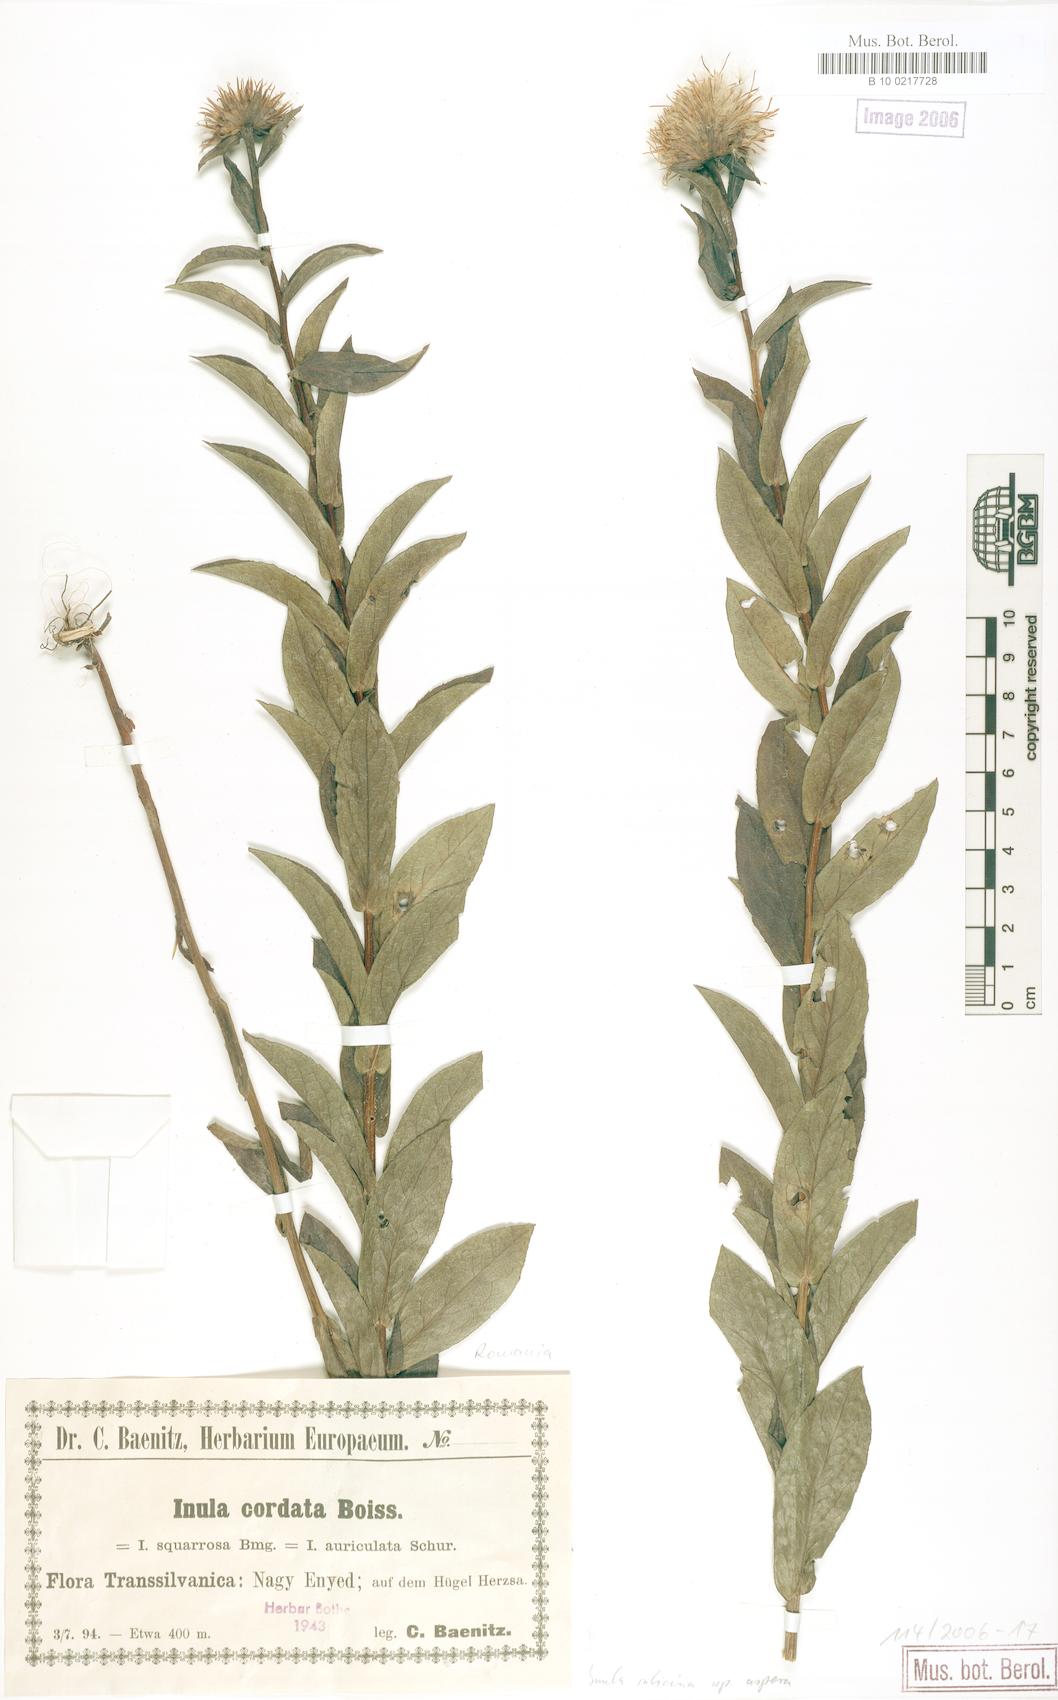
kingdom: Plantae
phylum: Tracheophyta
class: Magnoliopsida
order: Asterales
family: Asteraceae
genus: Pentanema
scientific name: Pentanema salicinum
